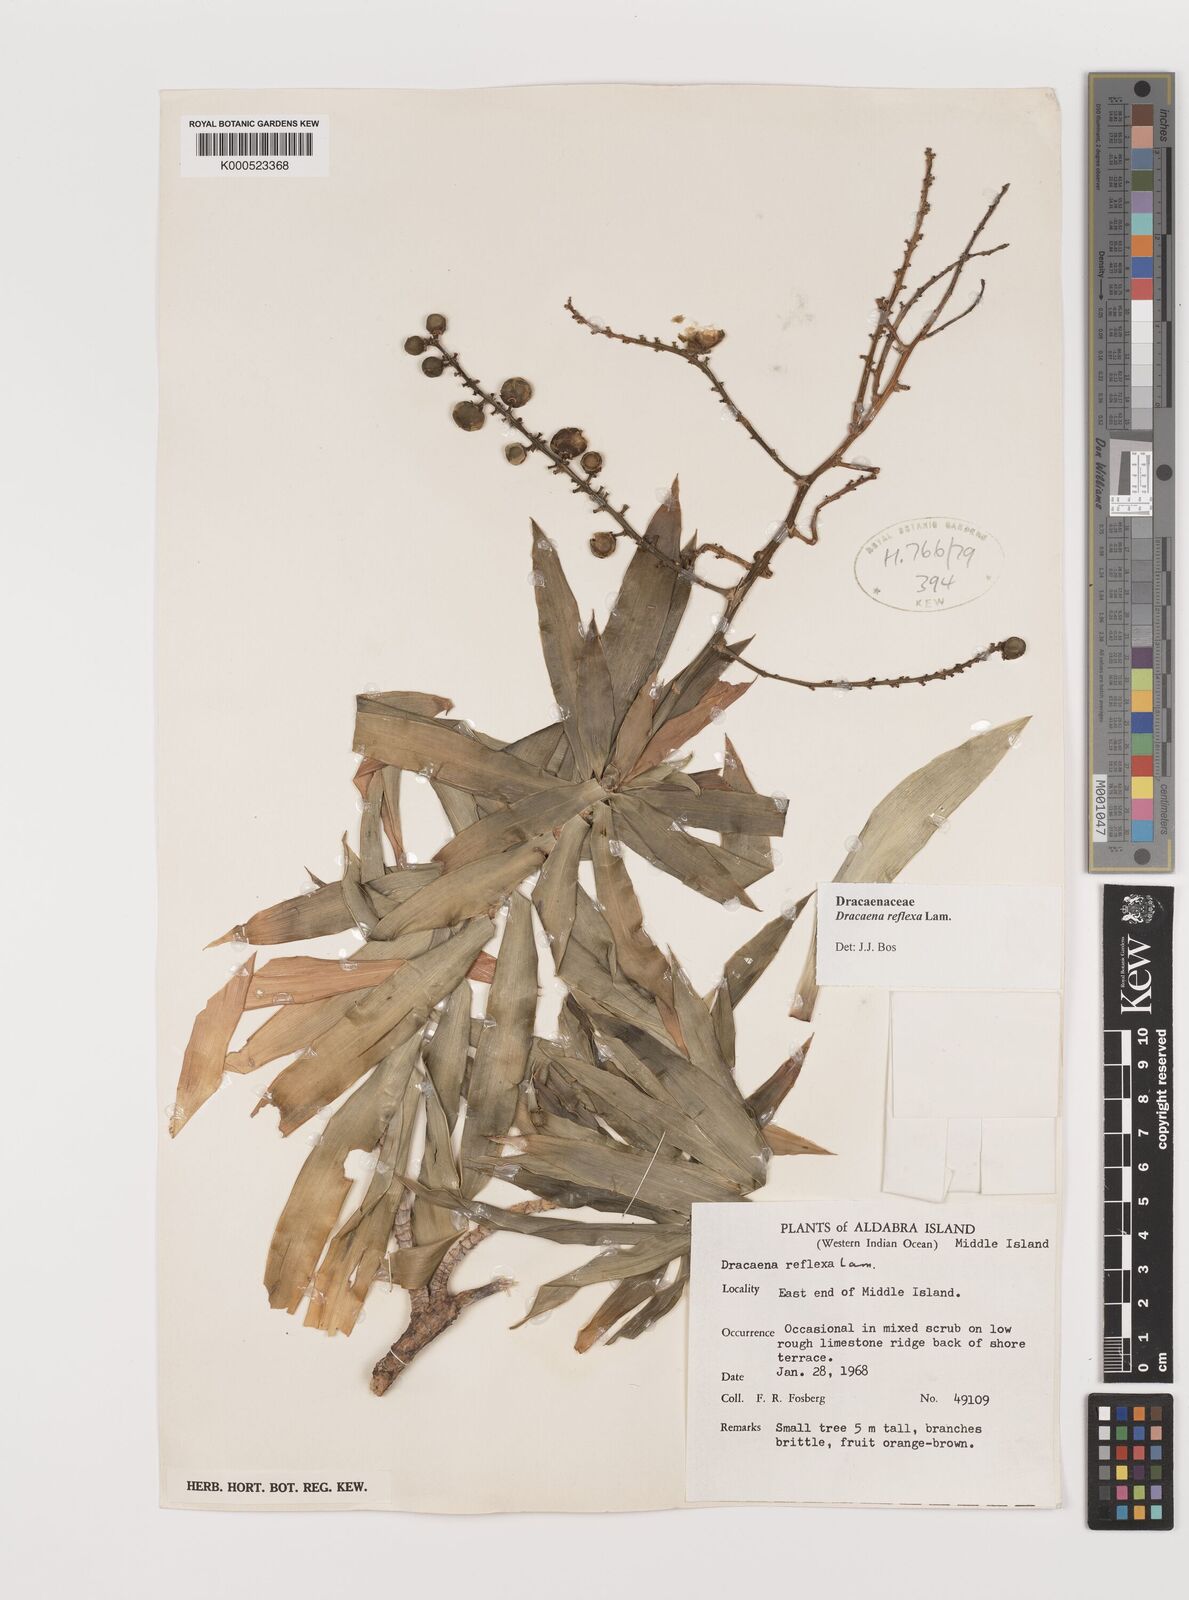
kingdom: Plantae
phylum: Tracheophyta
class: Liliopsida
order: Asparagales
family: Asparagaceae
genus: Dracaena
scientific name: Dracaena reflexa
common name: Song-of-india
